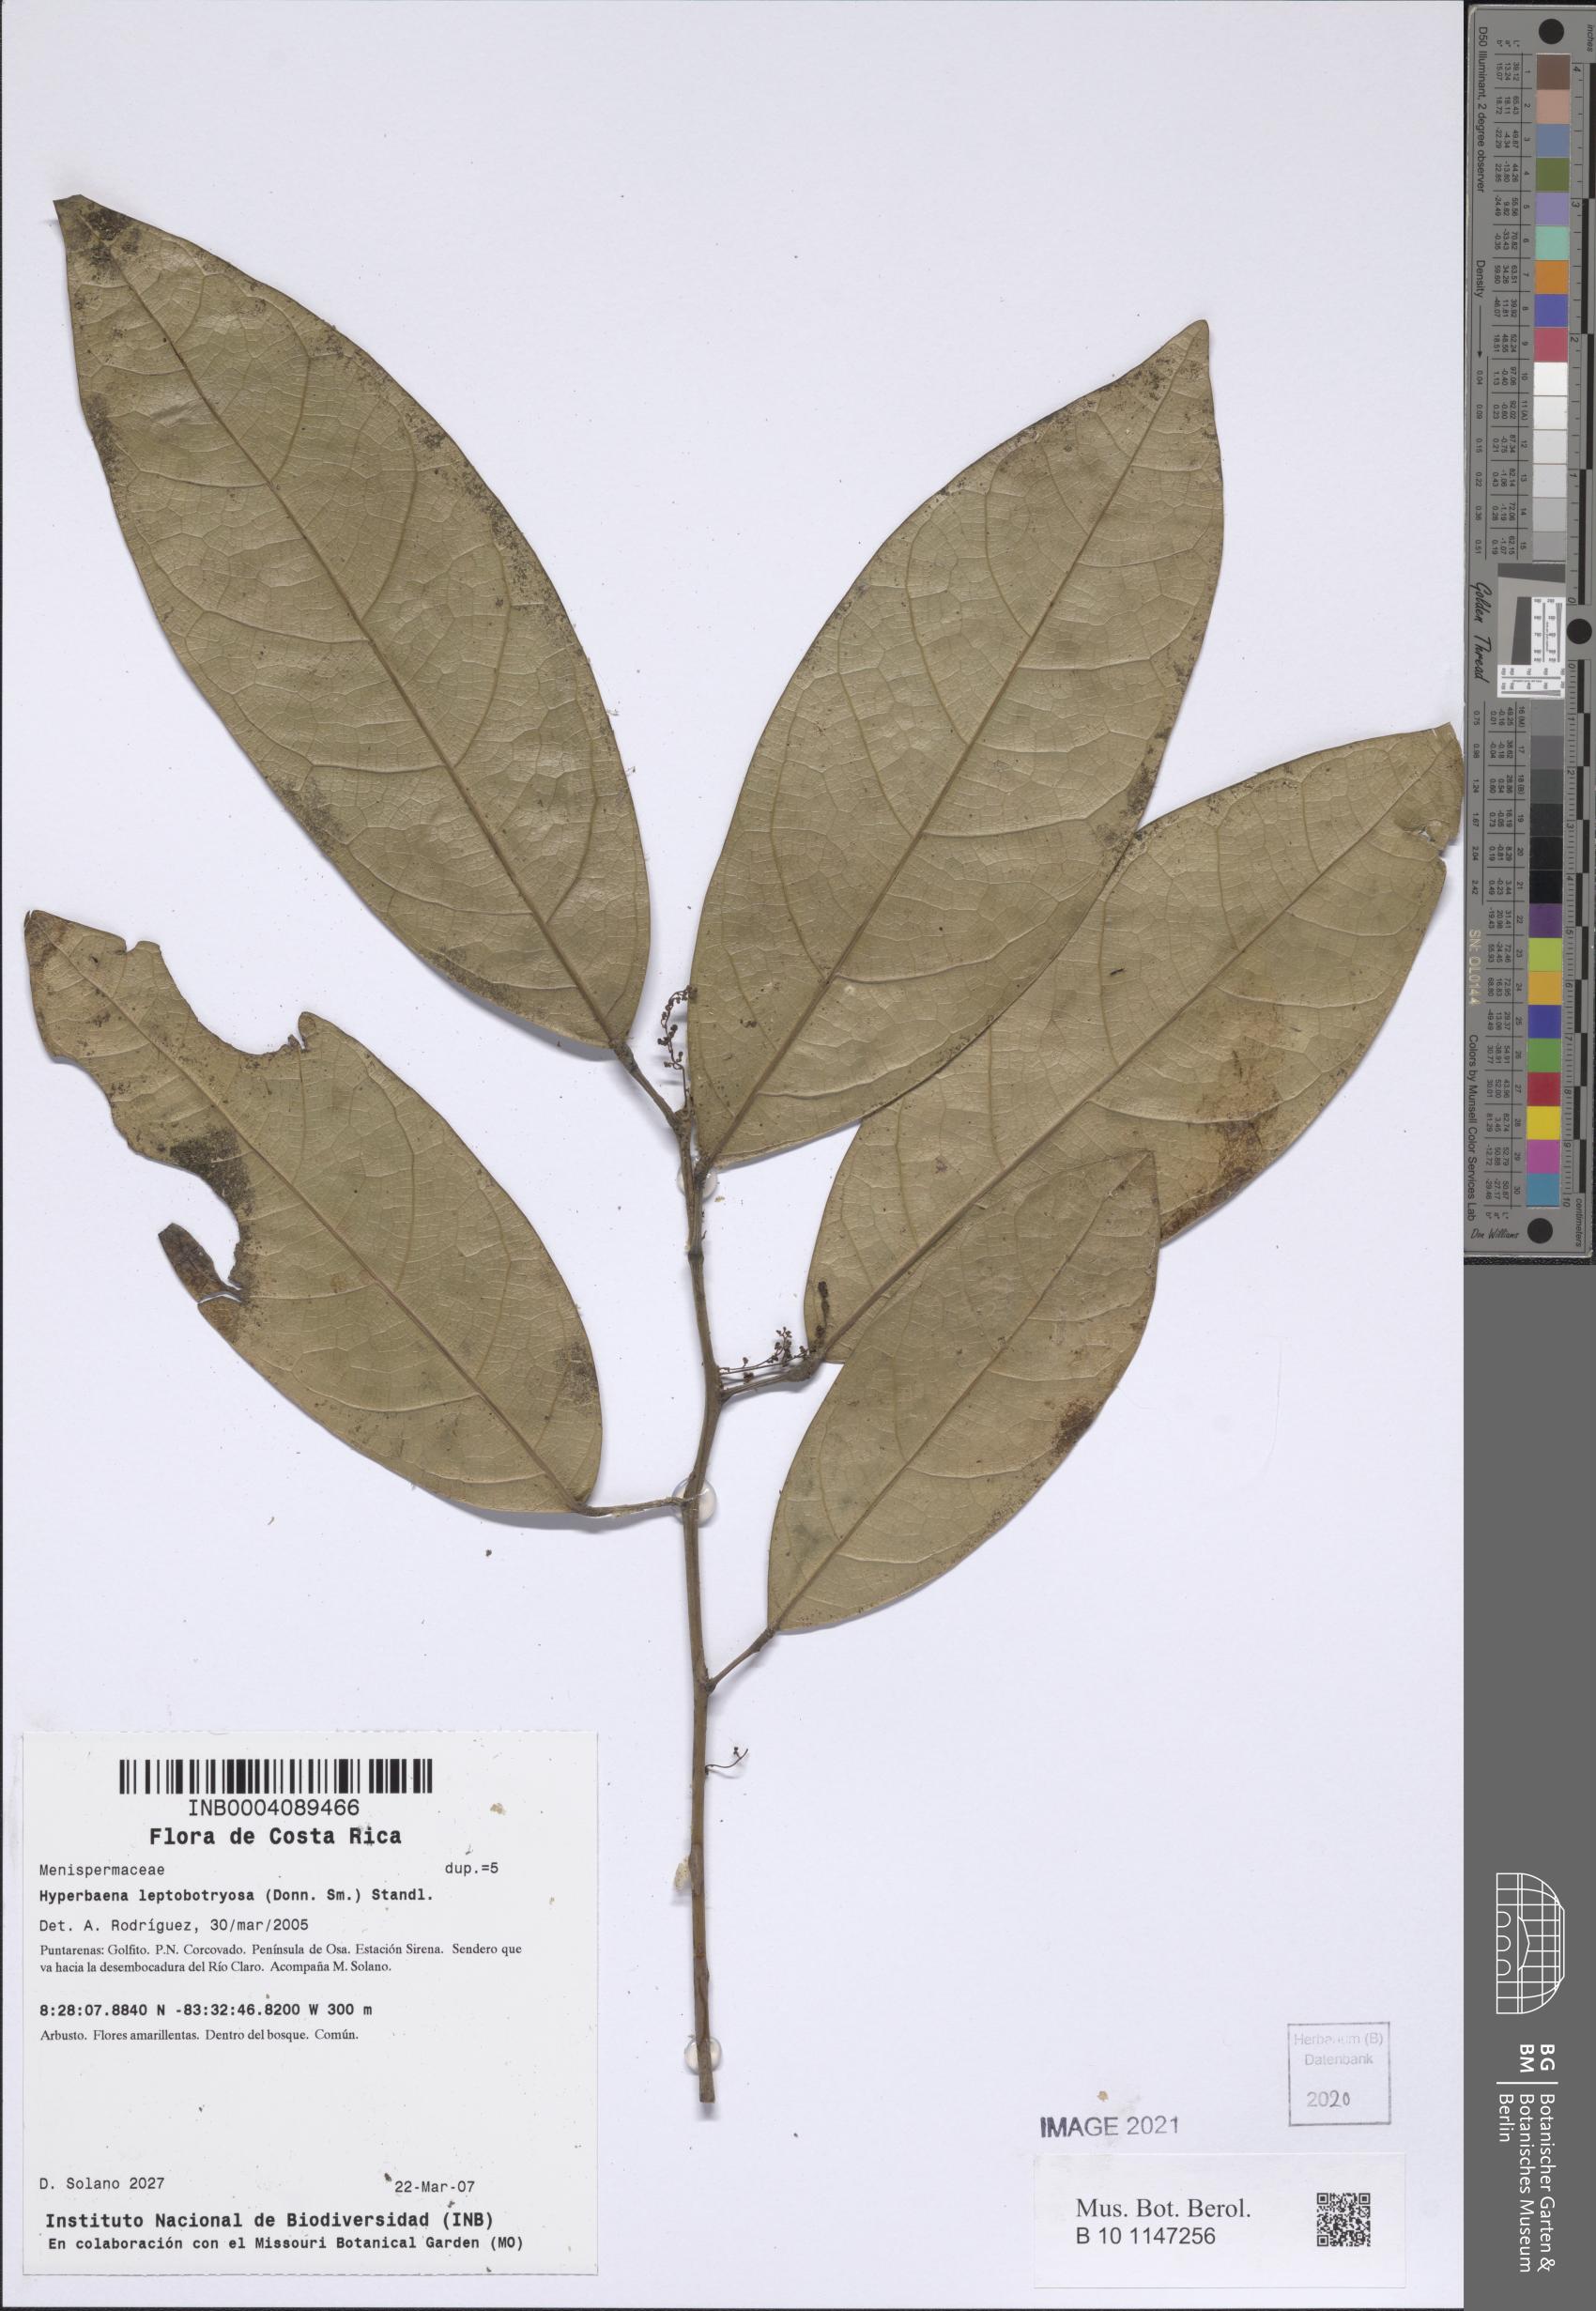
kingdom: Plantae
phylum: Tracheophyta
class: Magnoliopsida
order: Ranunculales
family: Menispermaceae
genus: Hyperbaena
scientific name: Hyperbaena leptobotryosa
